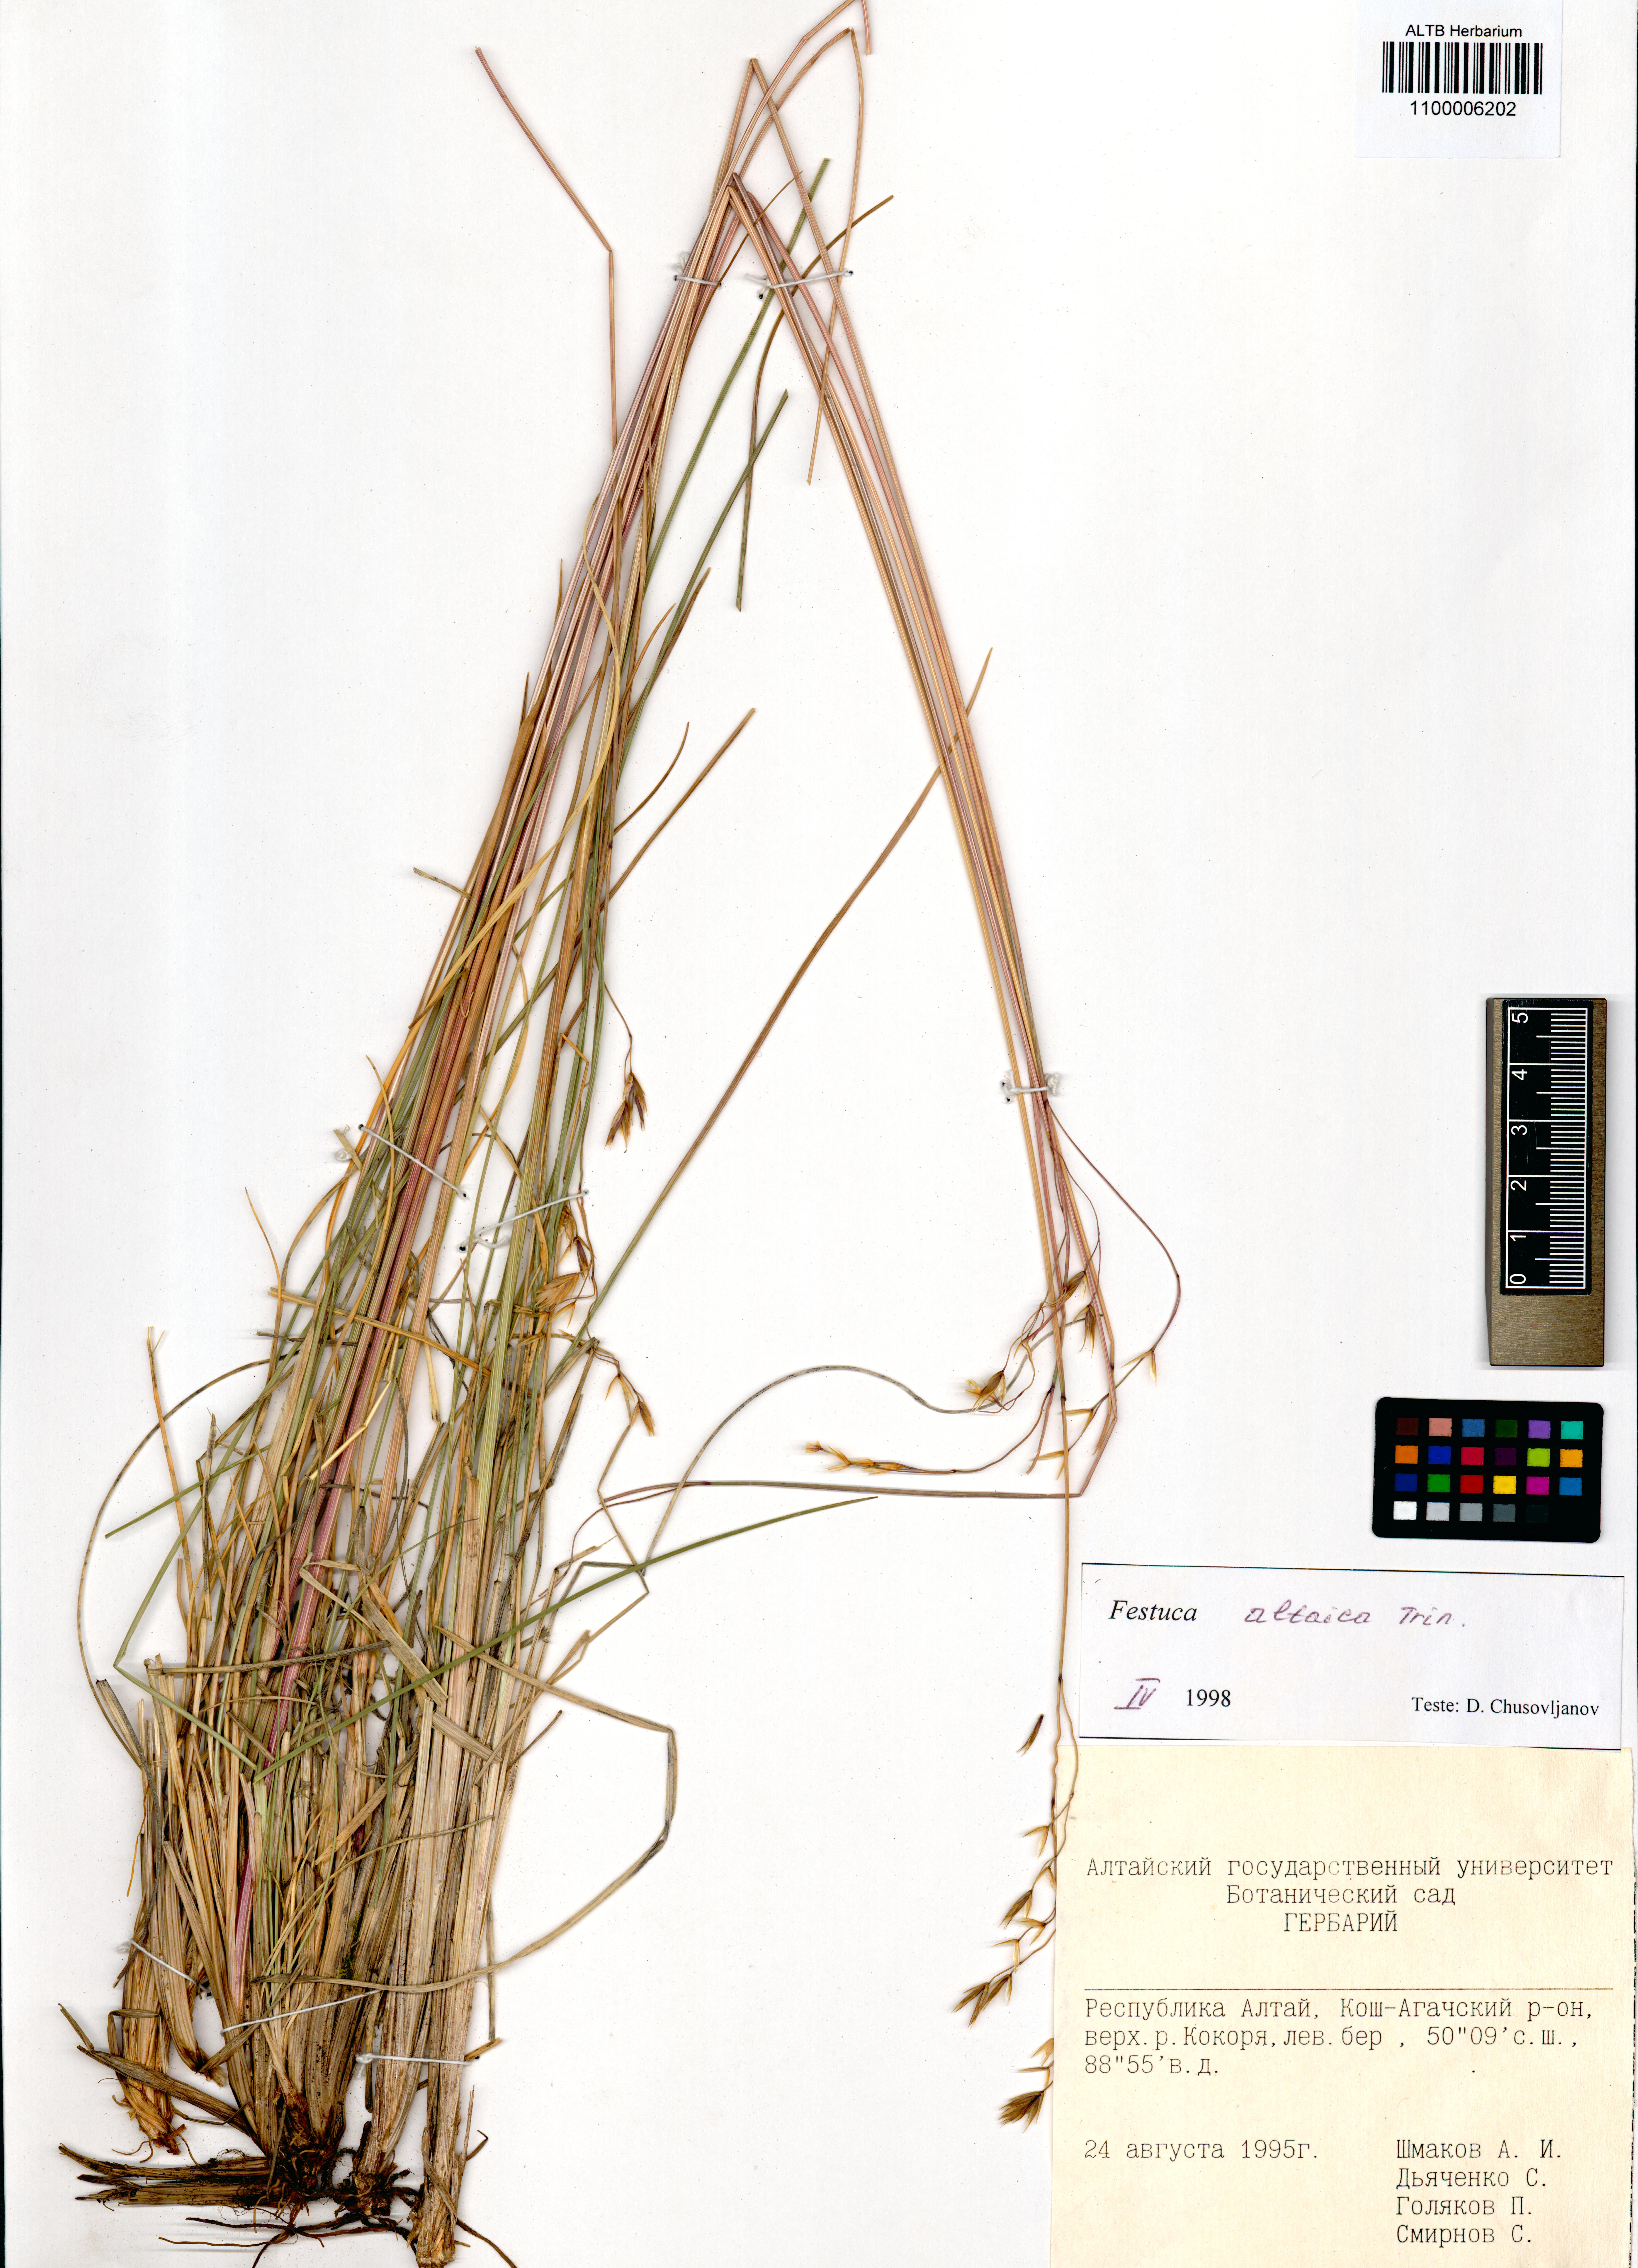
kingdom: Plantae
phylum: Tracheophyta
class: Liliopsida
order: Poales
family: Poaceae
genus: Festuca
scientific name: Festuca altaica
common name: Northern rough fescue
